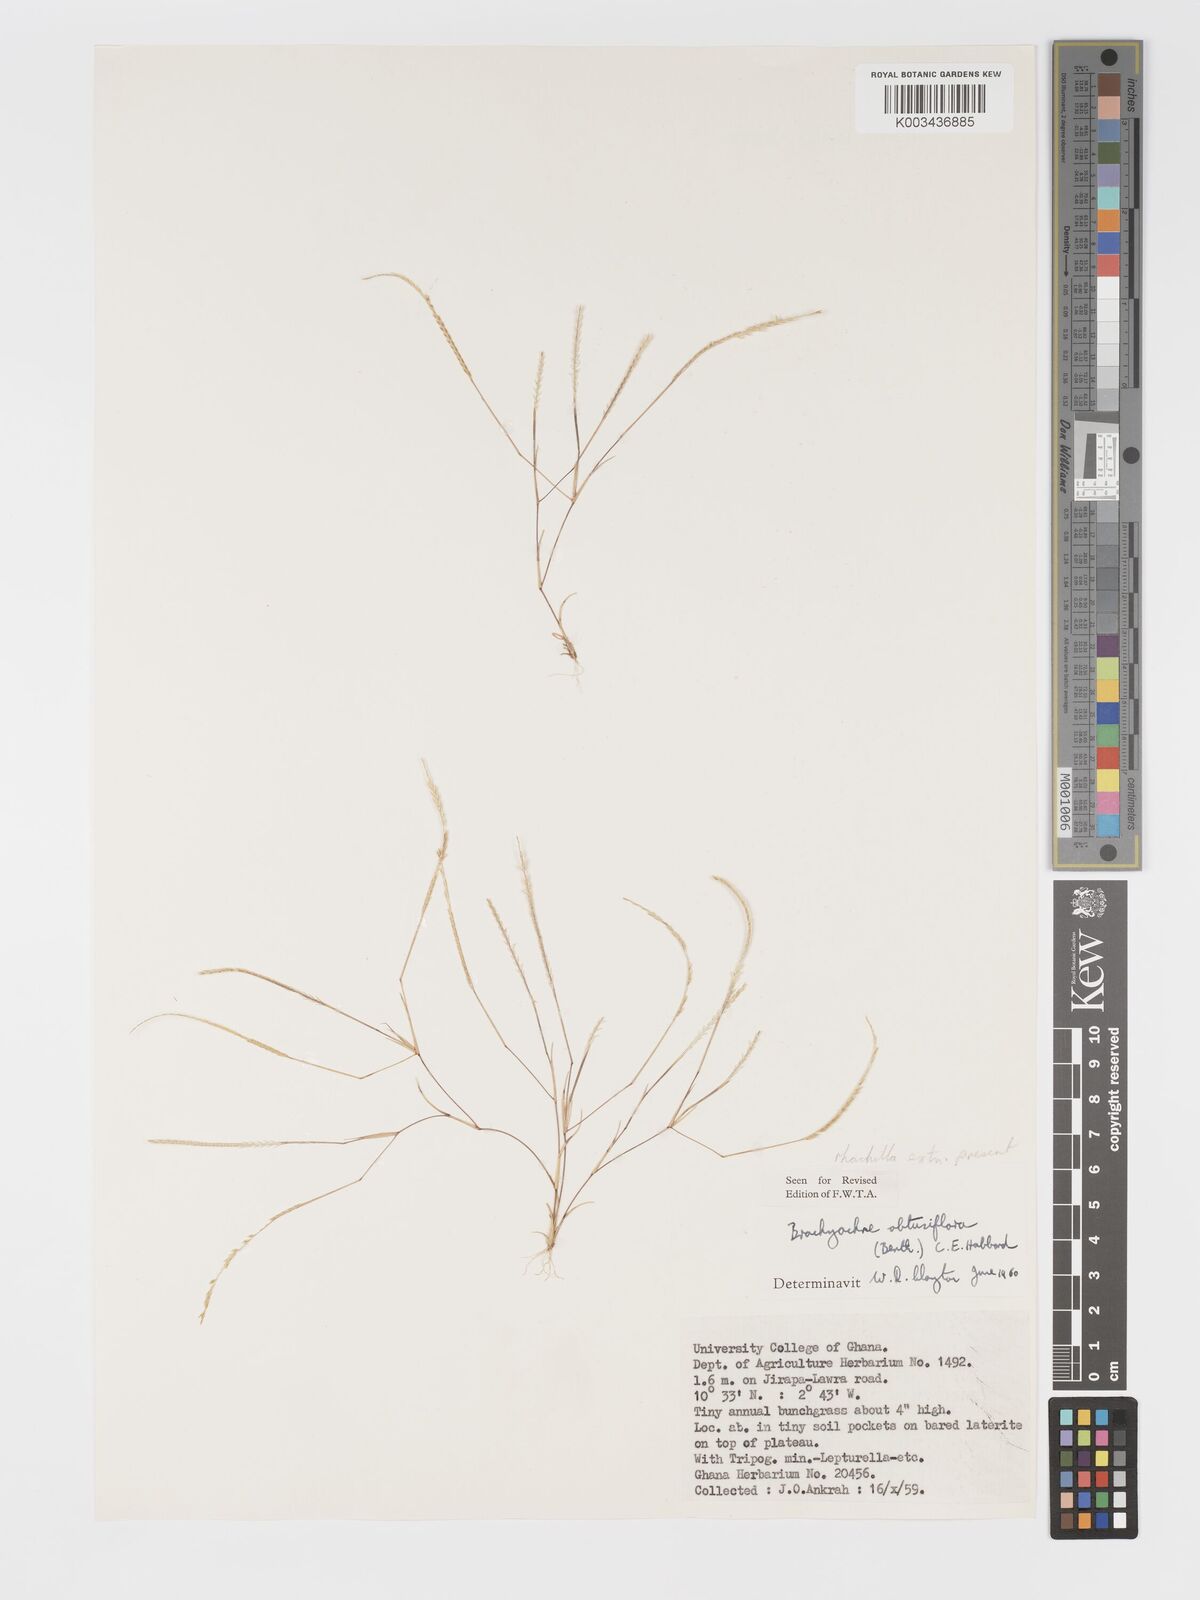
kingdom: Plantae
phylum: Tracheophyta
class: Liliopsida
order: Poales
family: Poaceae
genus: Micrachne
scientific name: Micrachne obtusiflora
